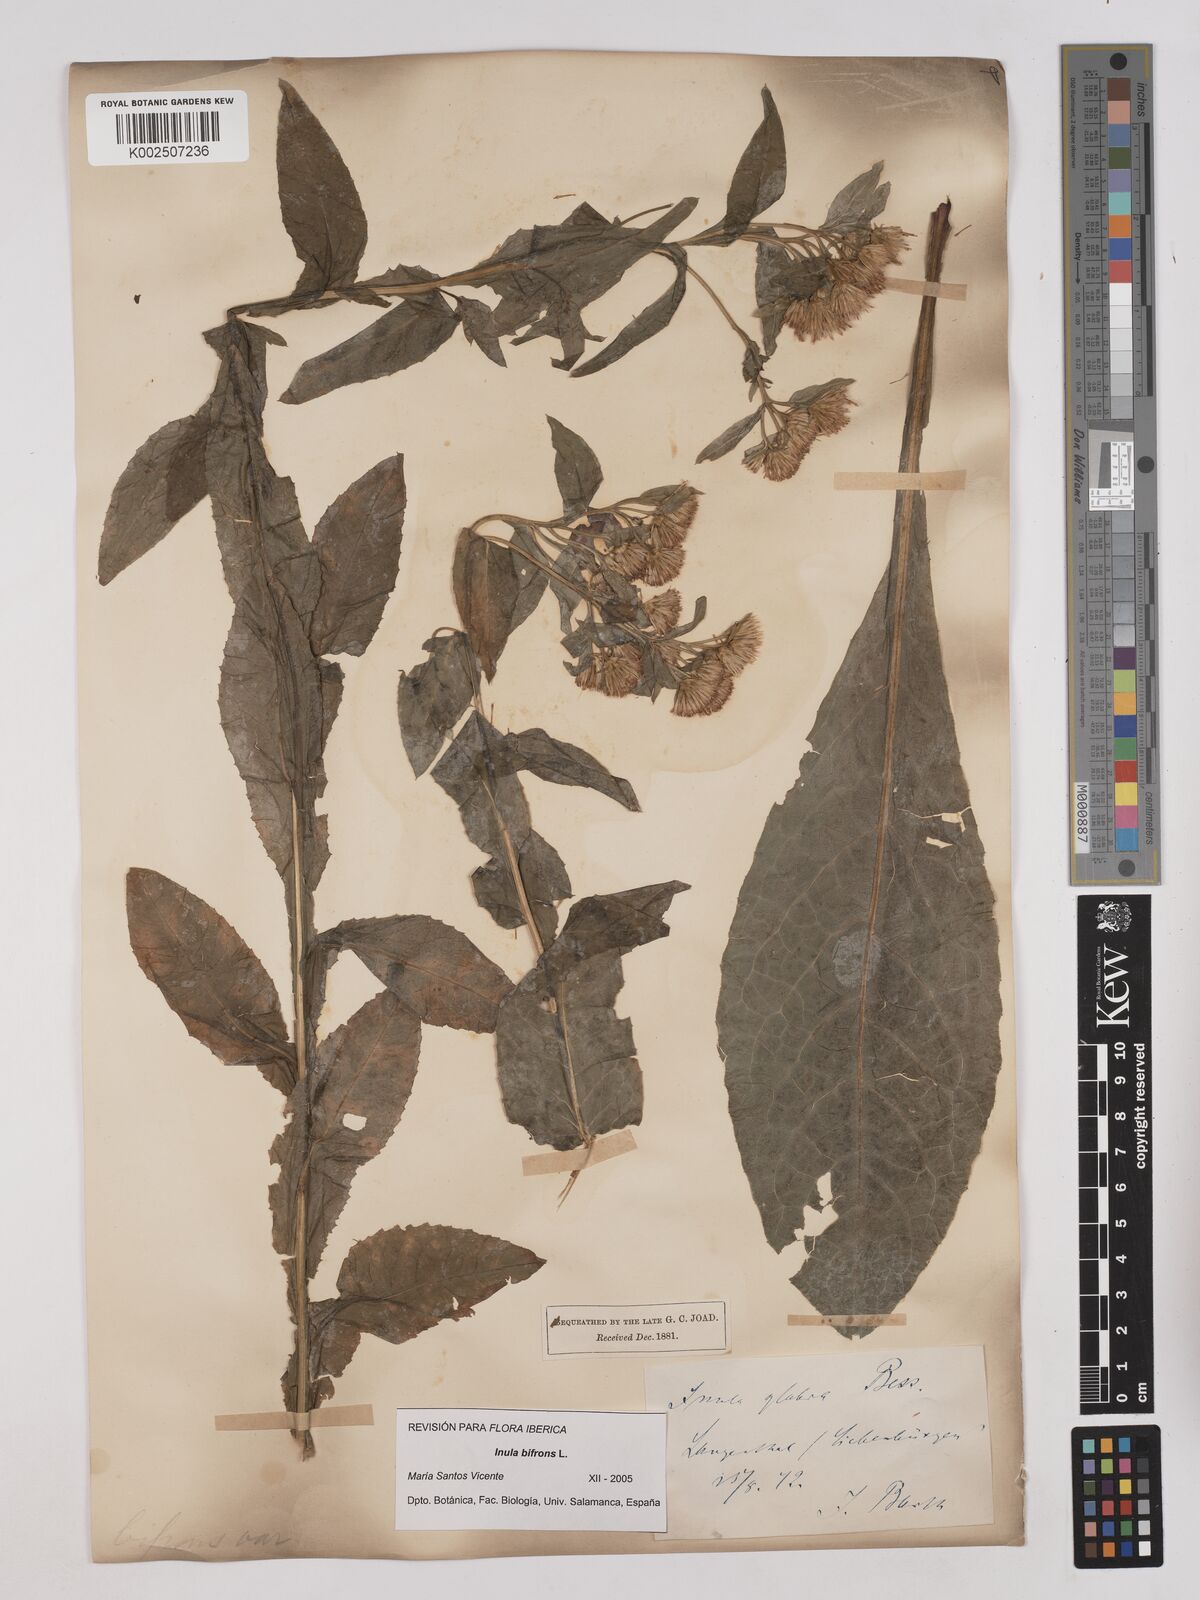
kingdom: Plantae
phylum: Tracheophyta
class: Magnoliopsida
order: Asterales
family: Asteraceae
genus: Pentanema
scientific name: Pentanema bifrons
